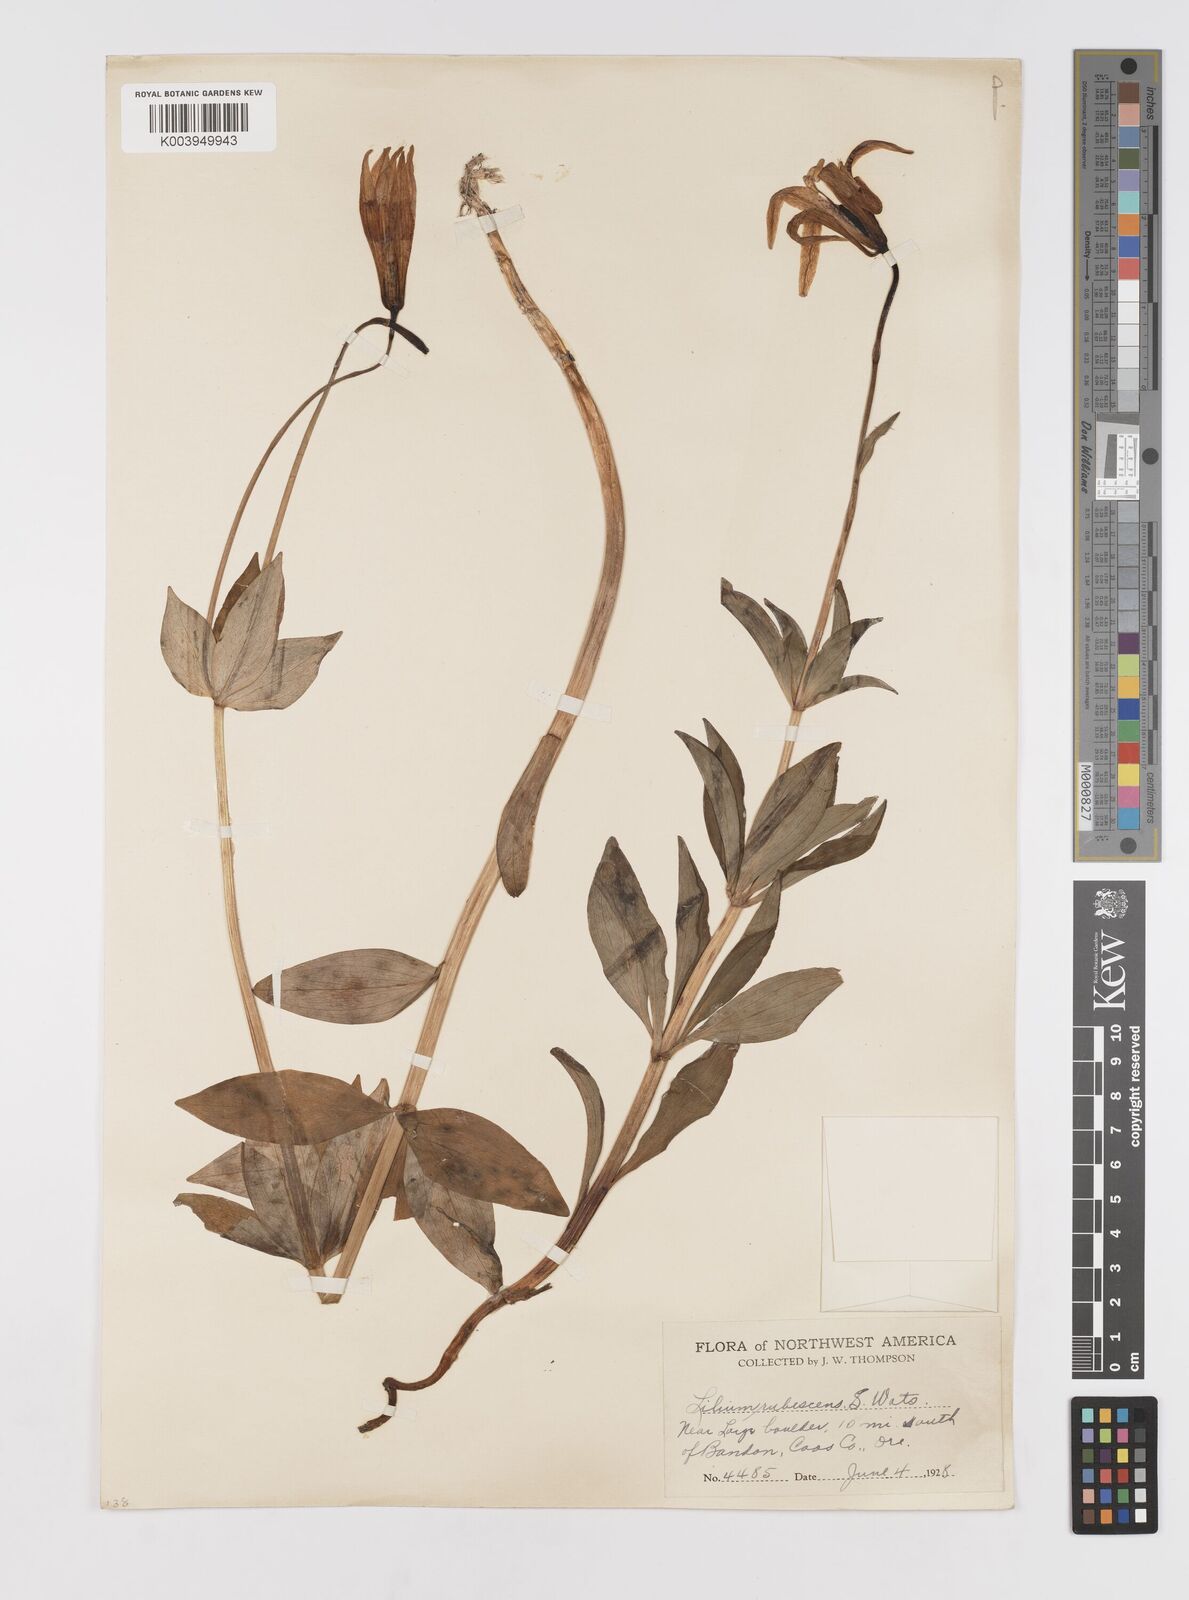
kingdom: Plantae
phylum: Tracheophyta
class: Liliopsida
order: Liliales
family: Liliaceae
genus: Lilium
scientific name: Lilium washingtonianum
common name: Washington lily
